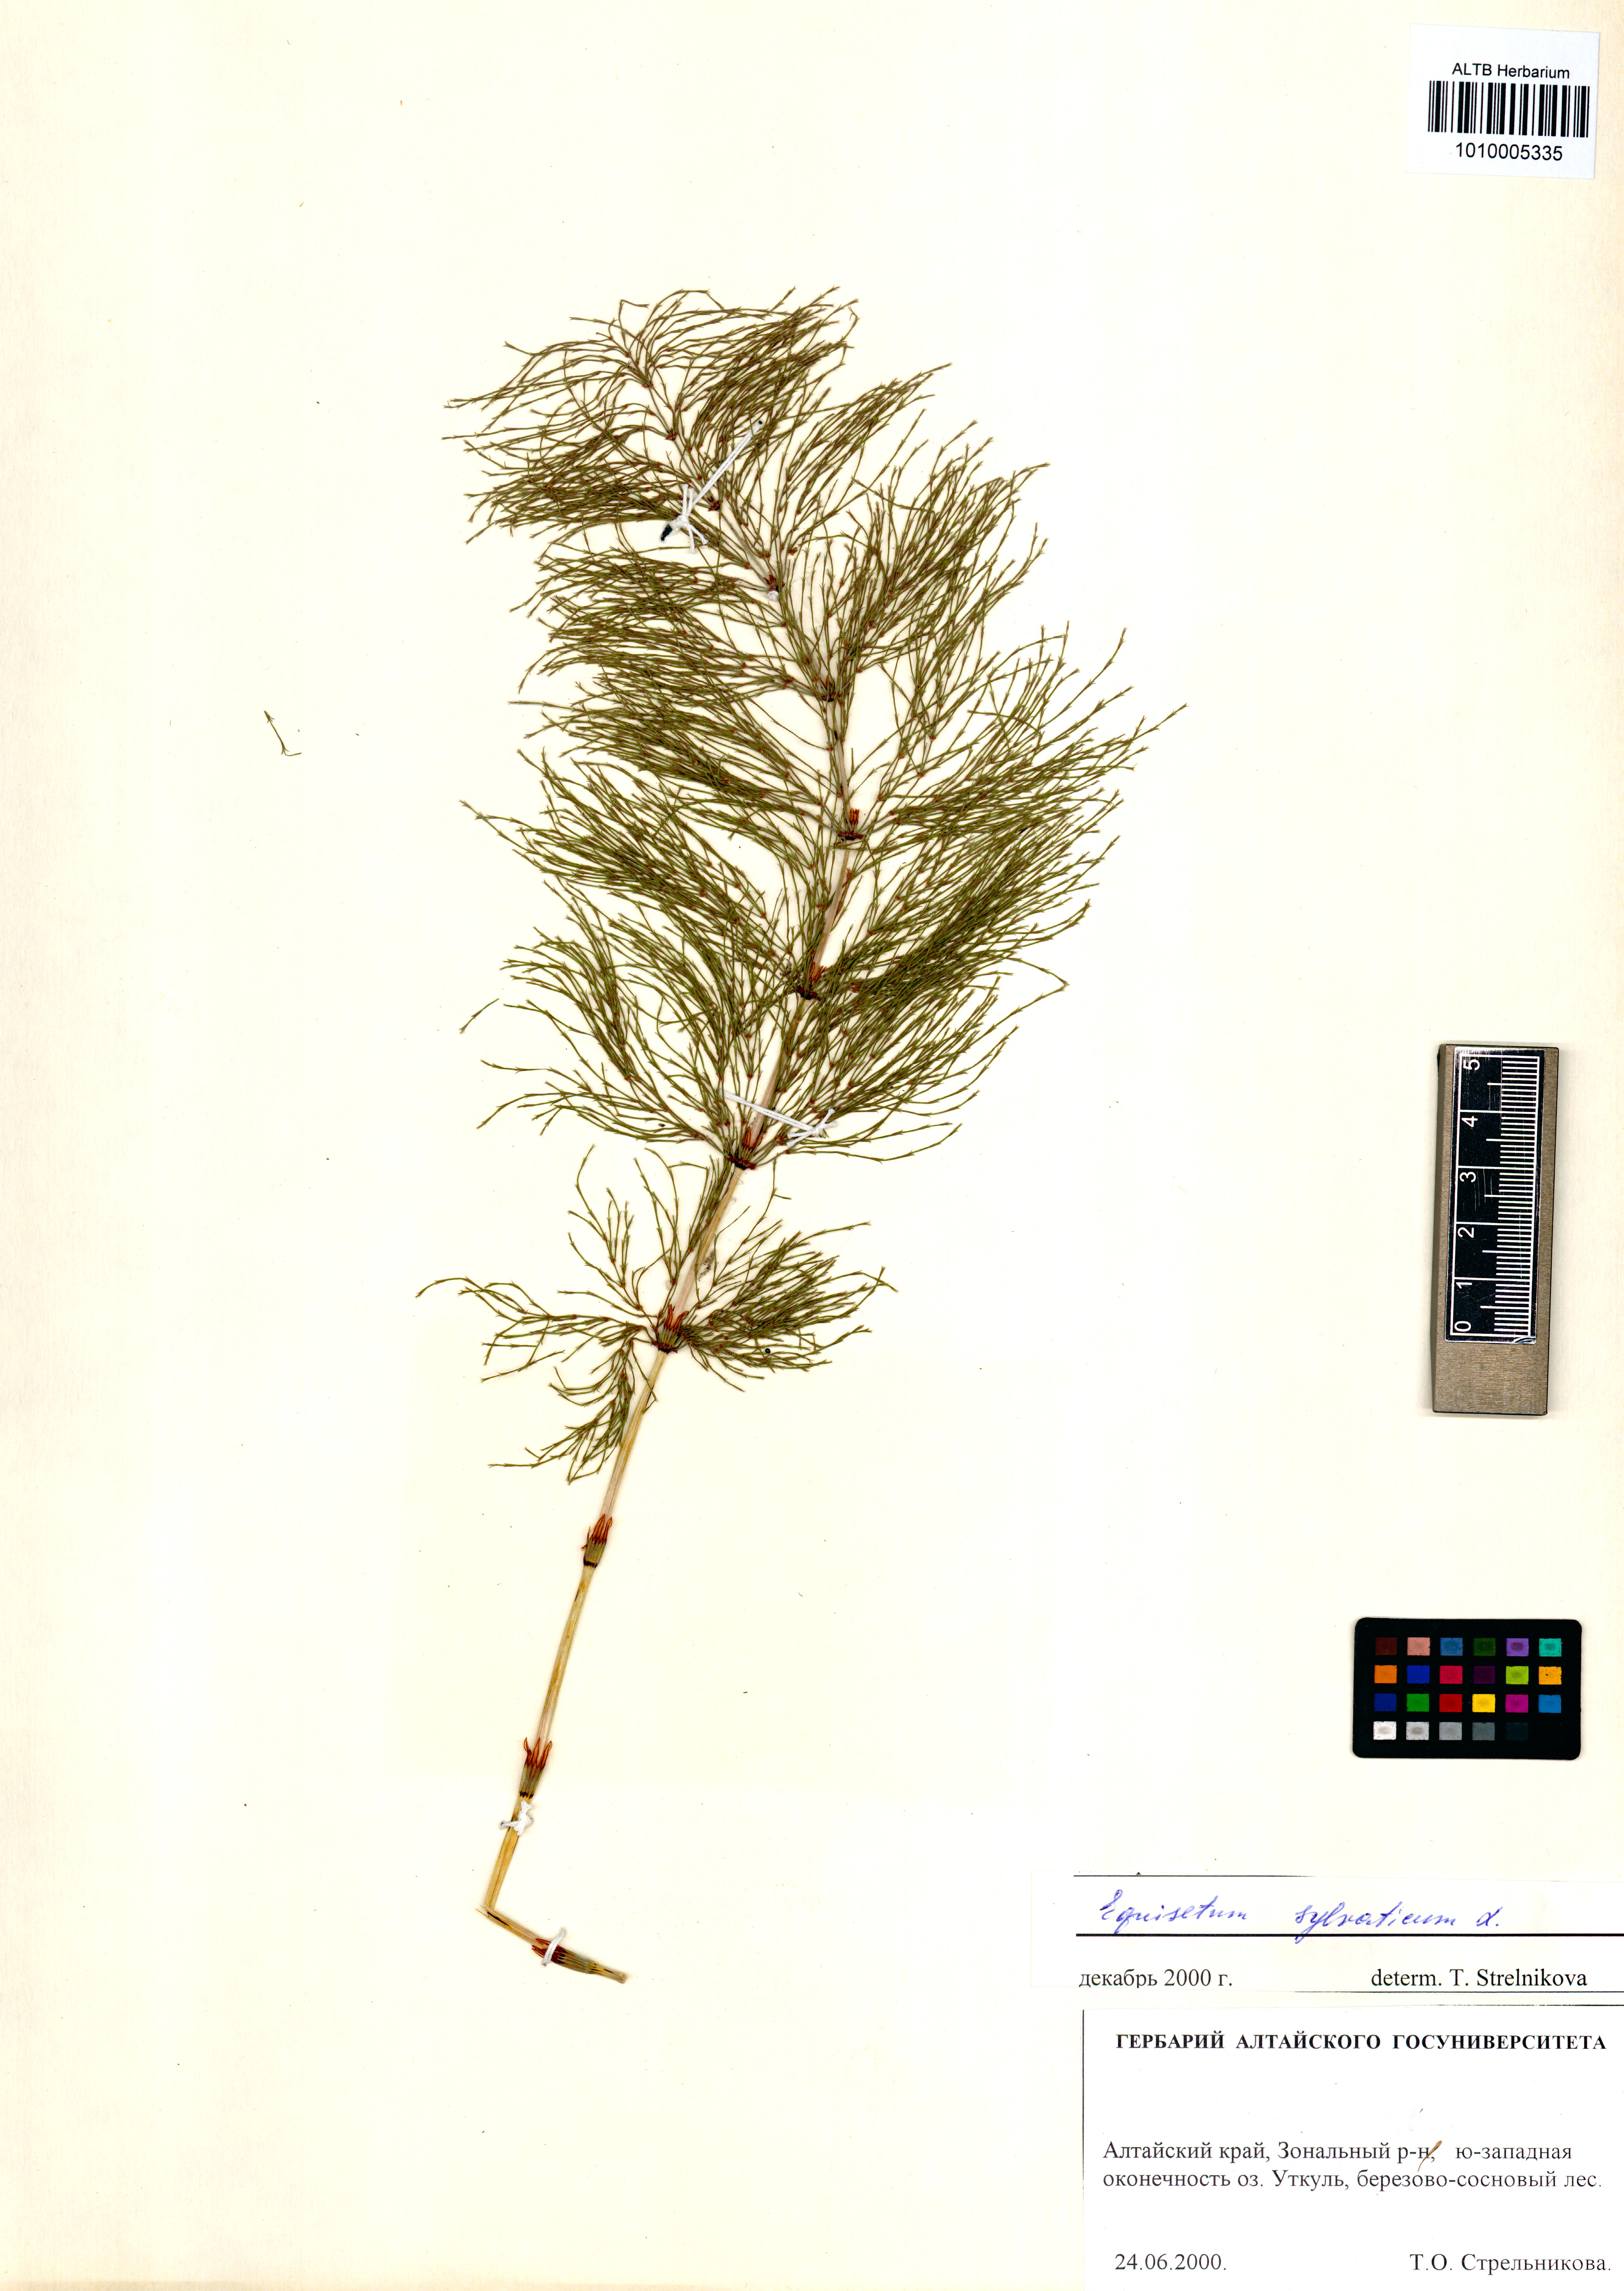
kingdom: Plantae
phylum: Tracheophyta
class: Polypodiopsida
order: Equisetales
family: Equisetaceae
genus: Equisetum
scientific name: Equisetum sylvaticum
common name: Wood horsetail
